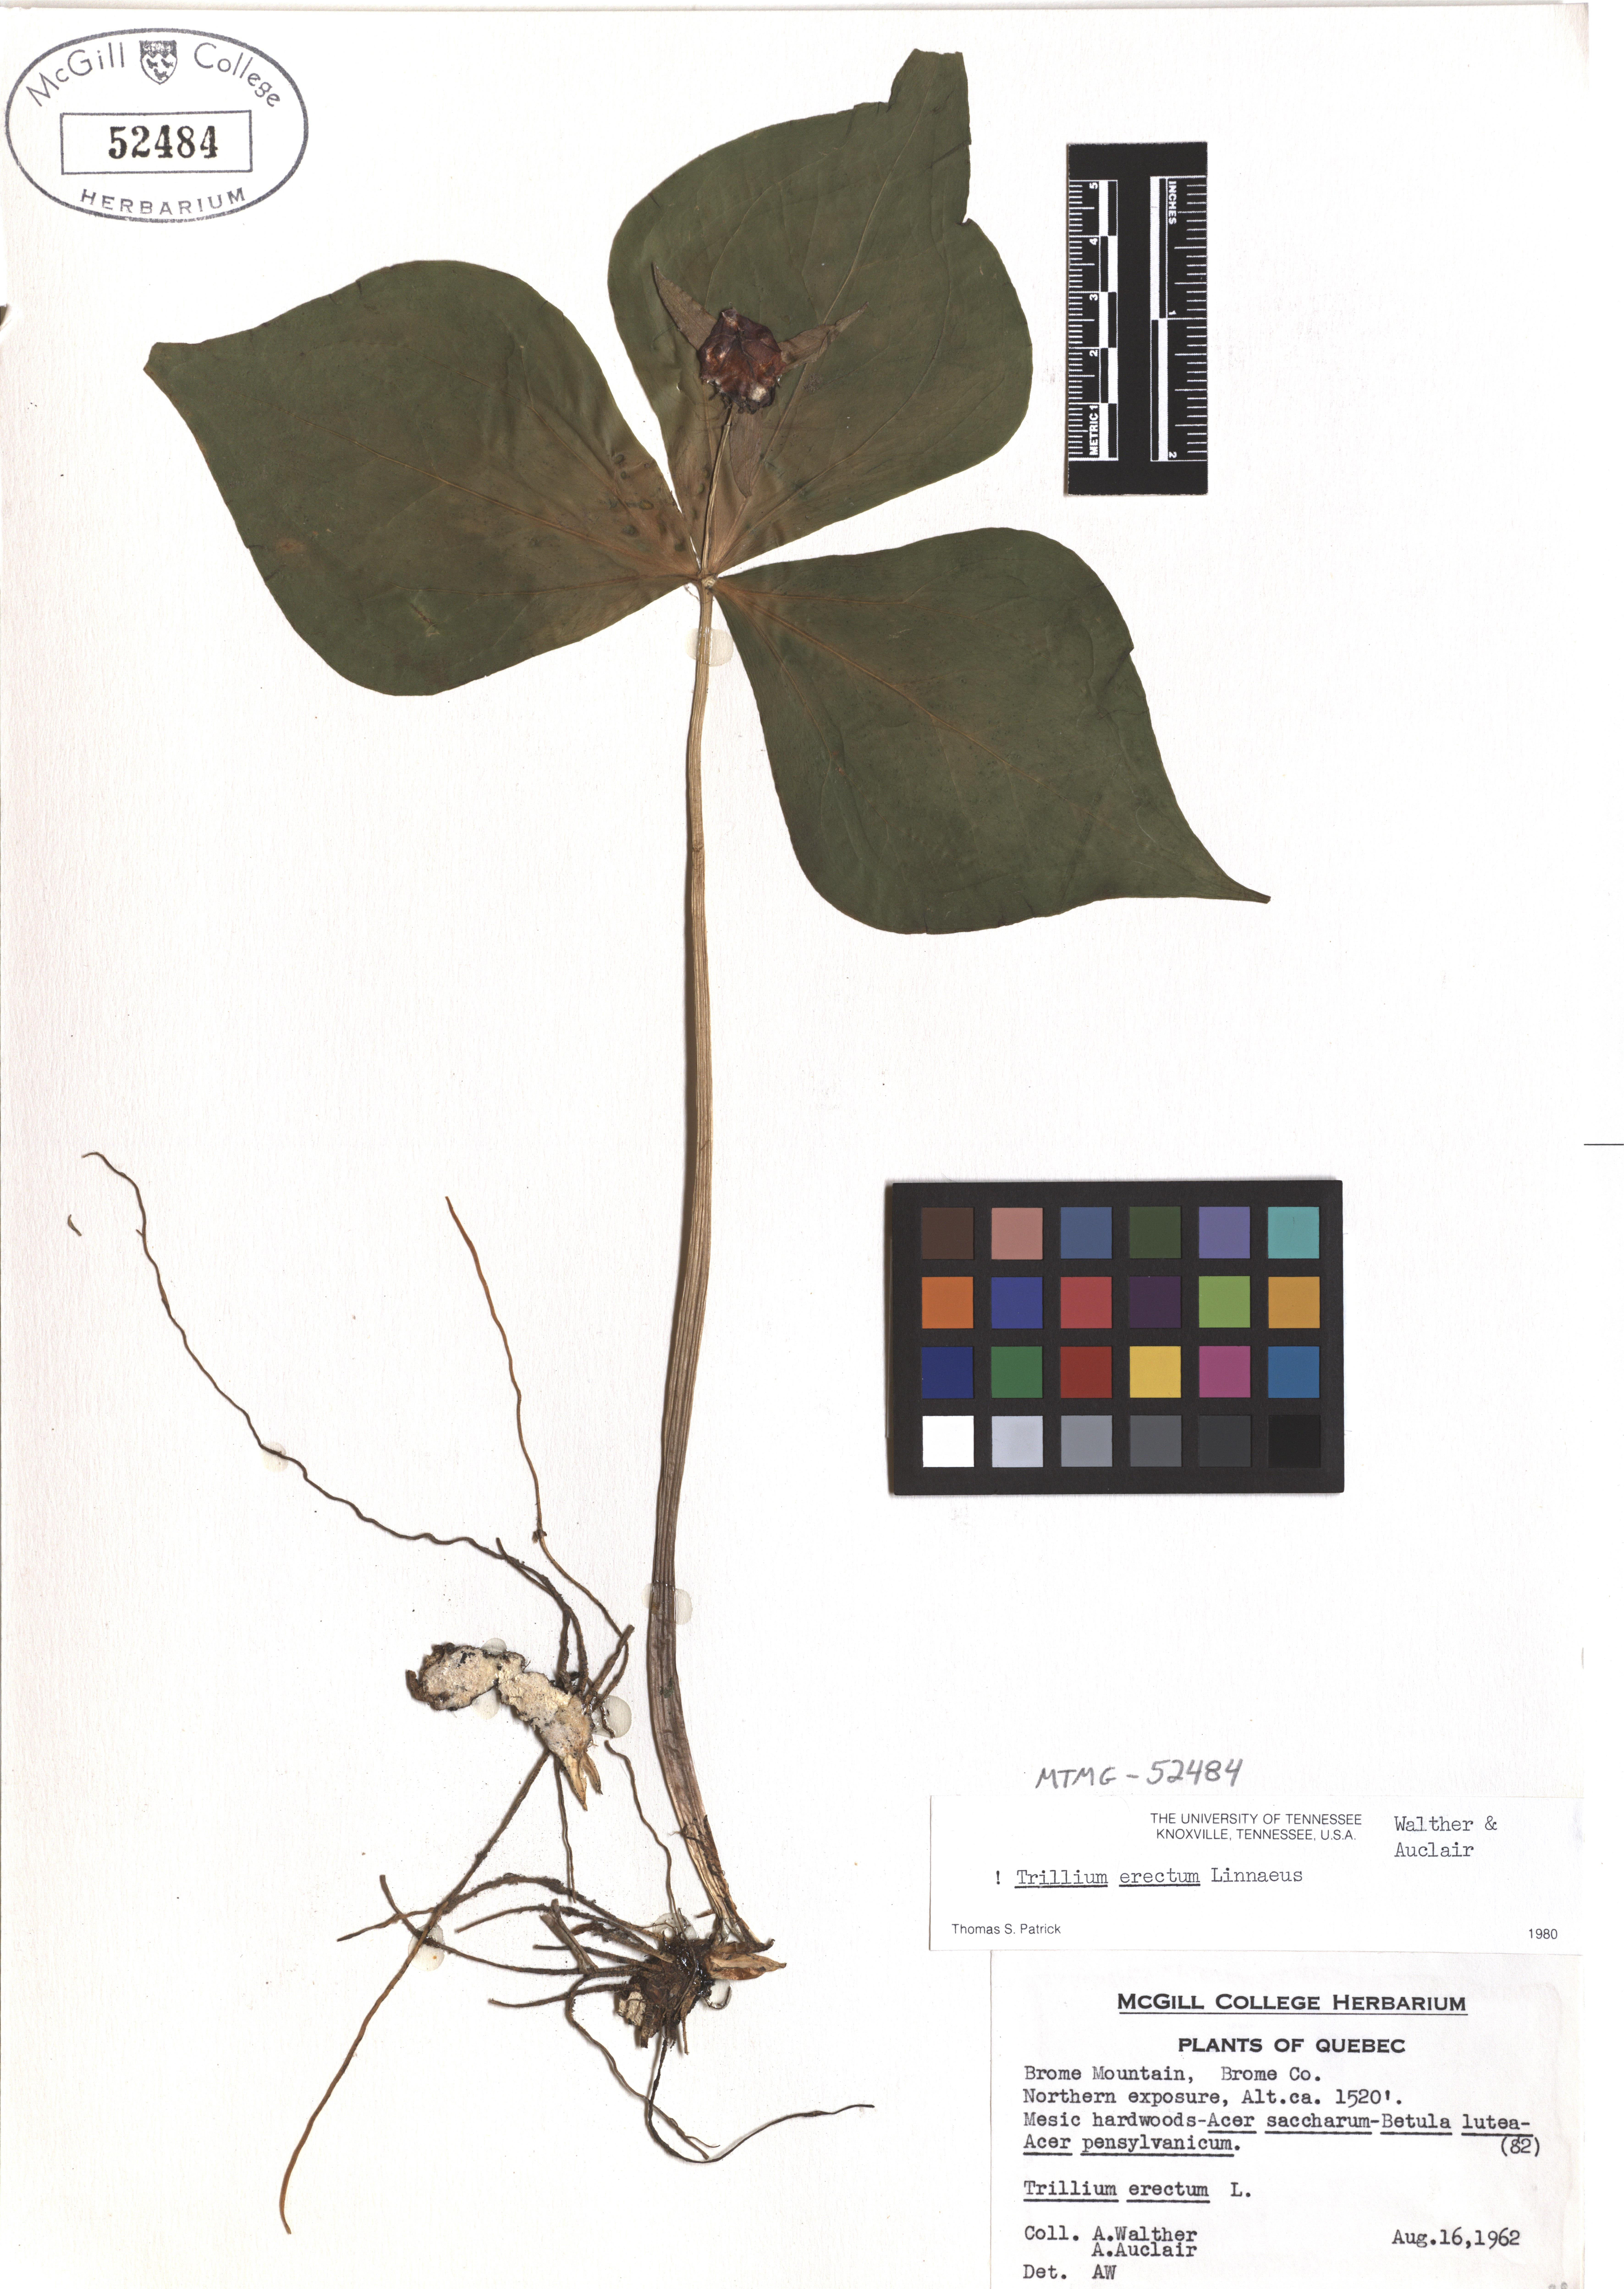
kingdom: Plantae
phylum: Tracheophyta
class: Liliopsida
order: Liliales
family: Melanthiaceae
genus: Trillium
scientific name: Trillium erectum
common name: Purple trillium
